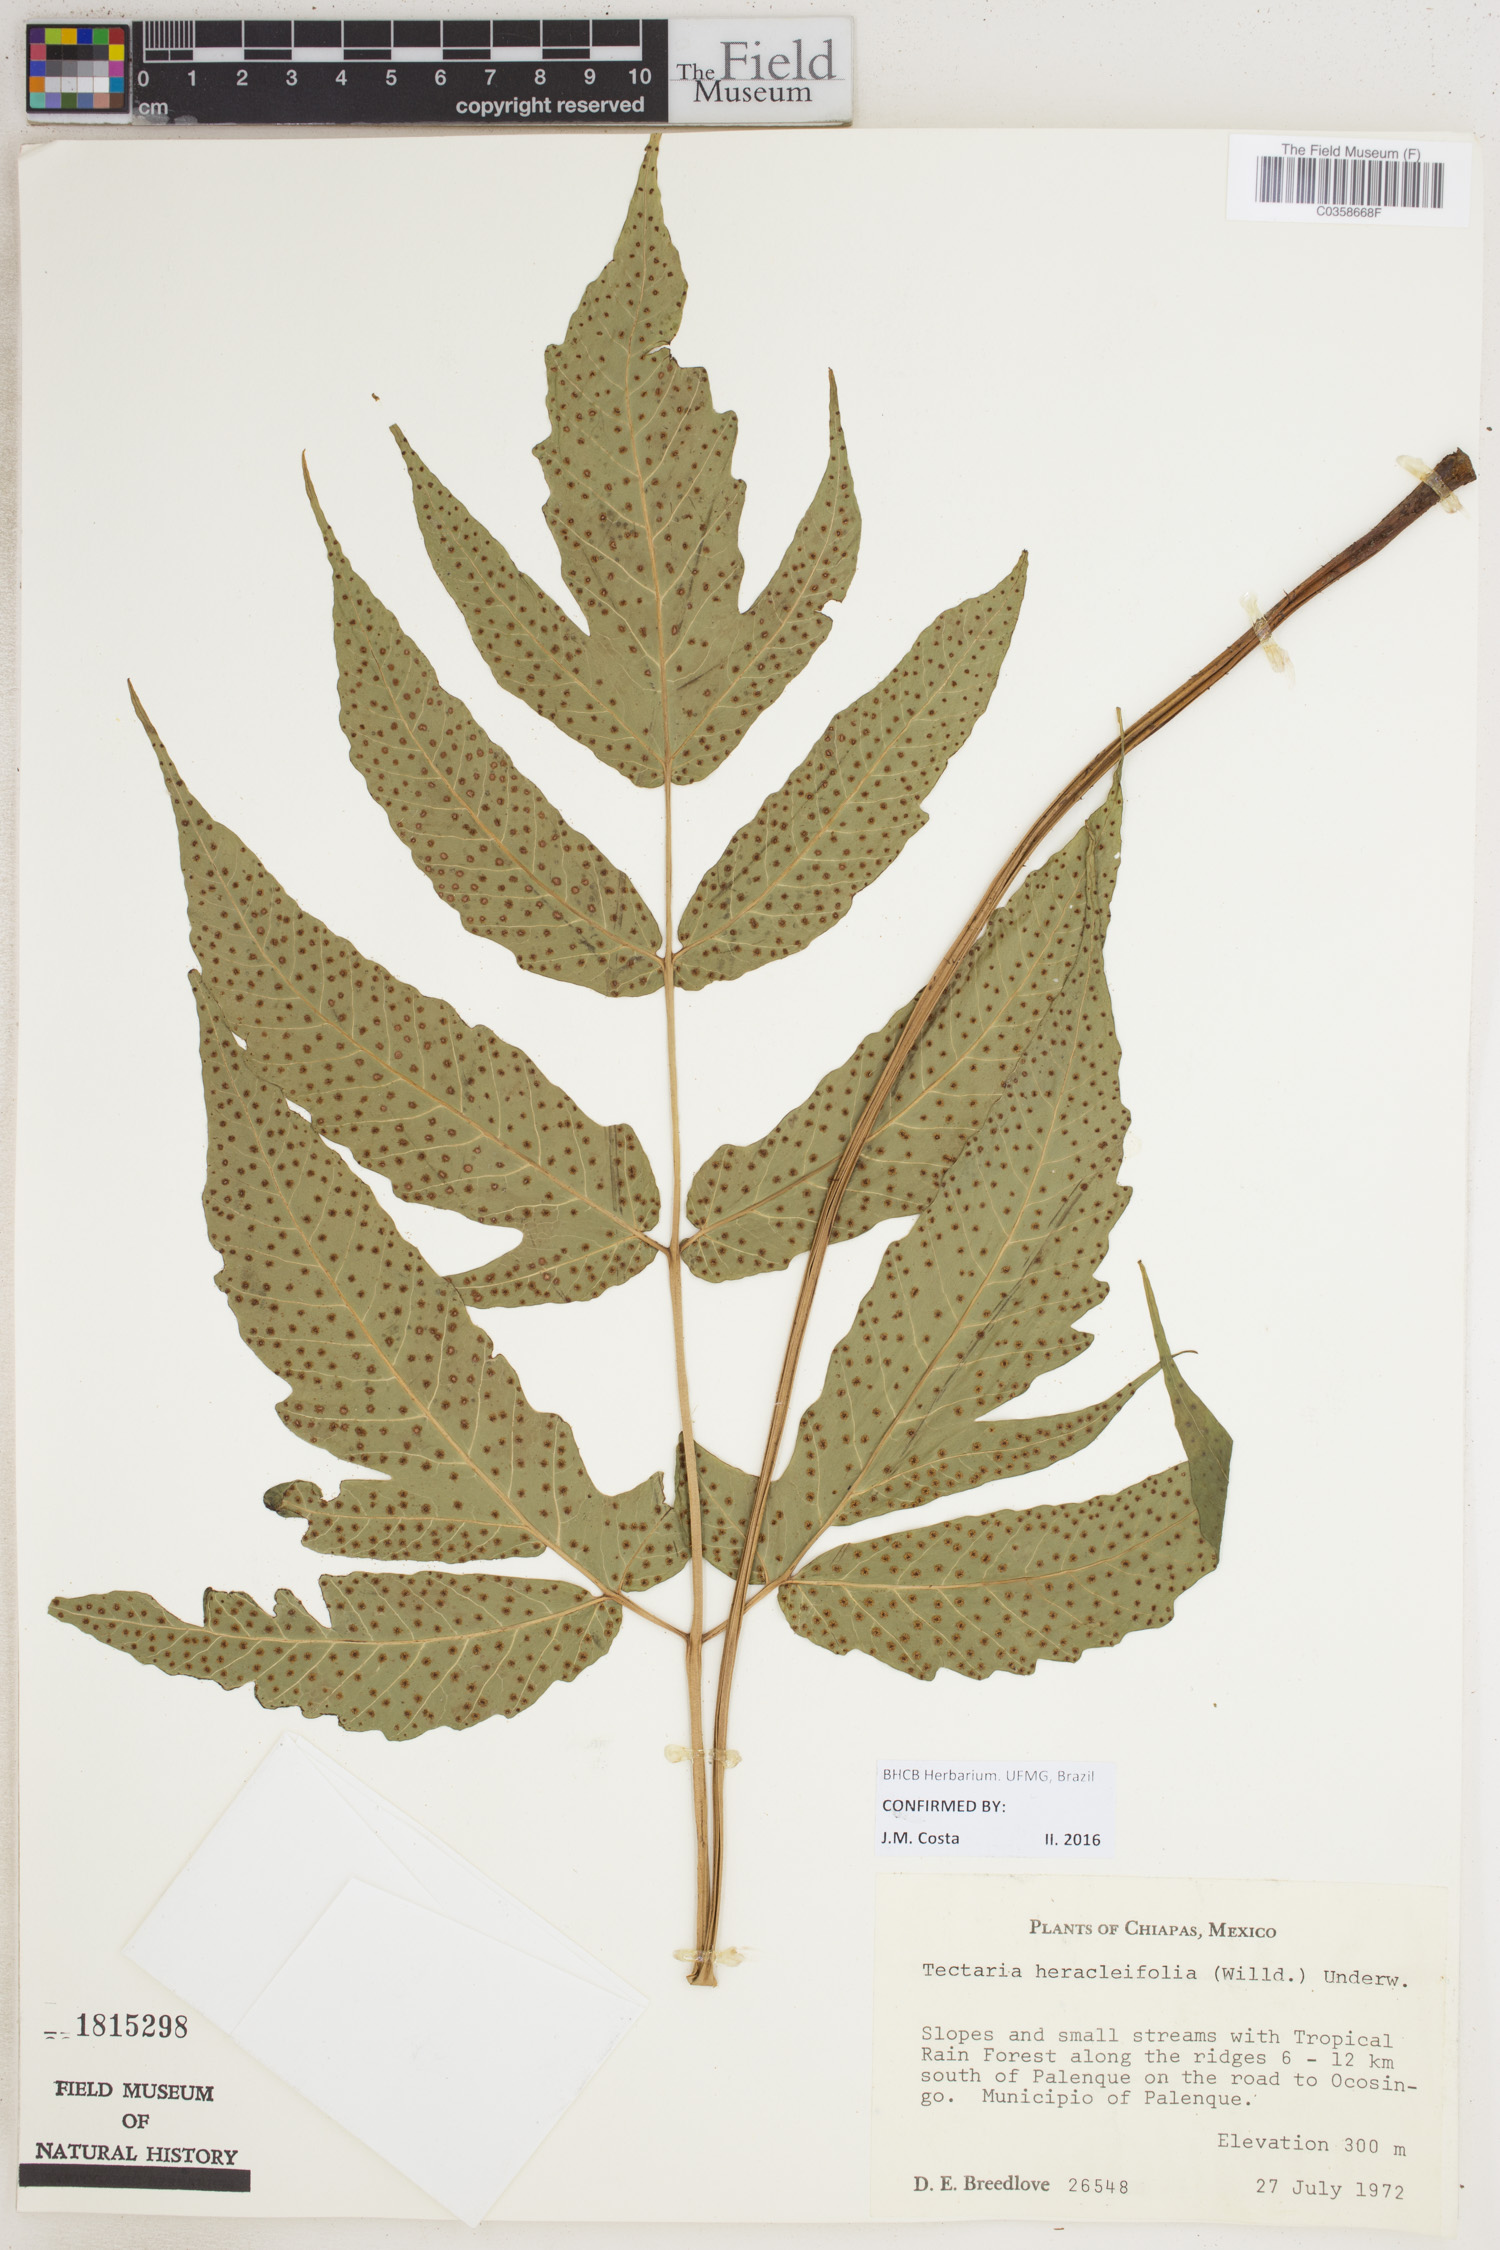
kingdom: Plantae
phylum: Tracheophyta
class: Polypodiopsida
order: Polypodiales
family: Tectariaceae
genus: Tectaria
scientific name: Tectaria heracleifolia
